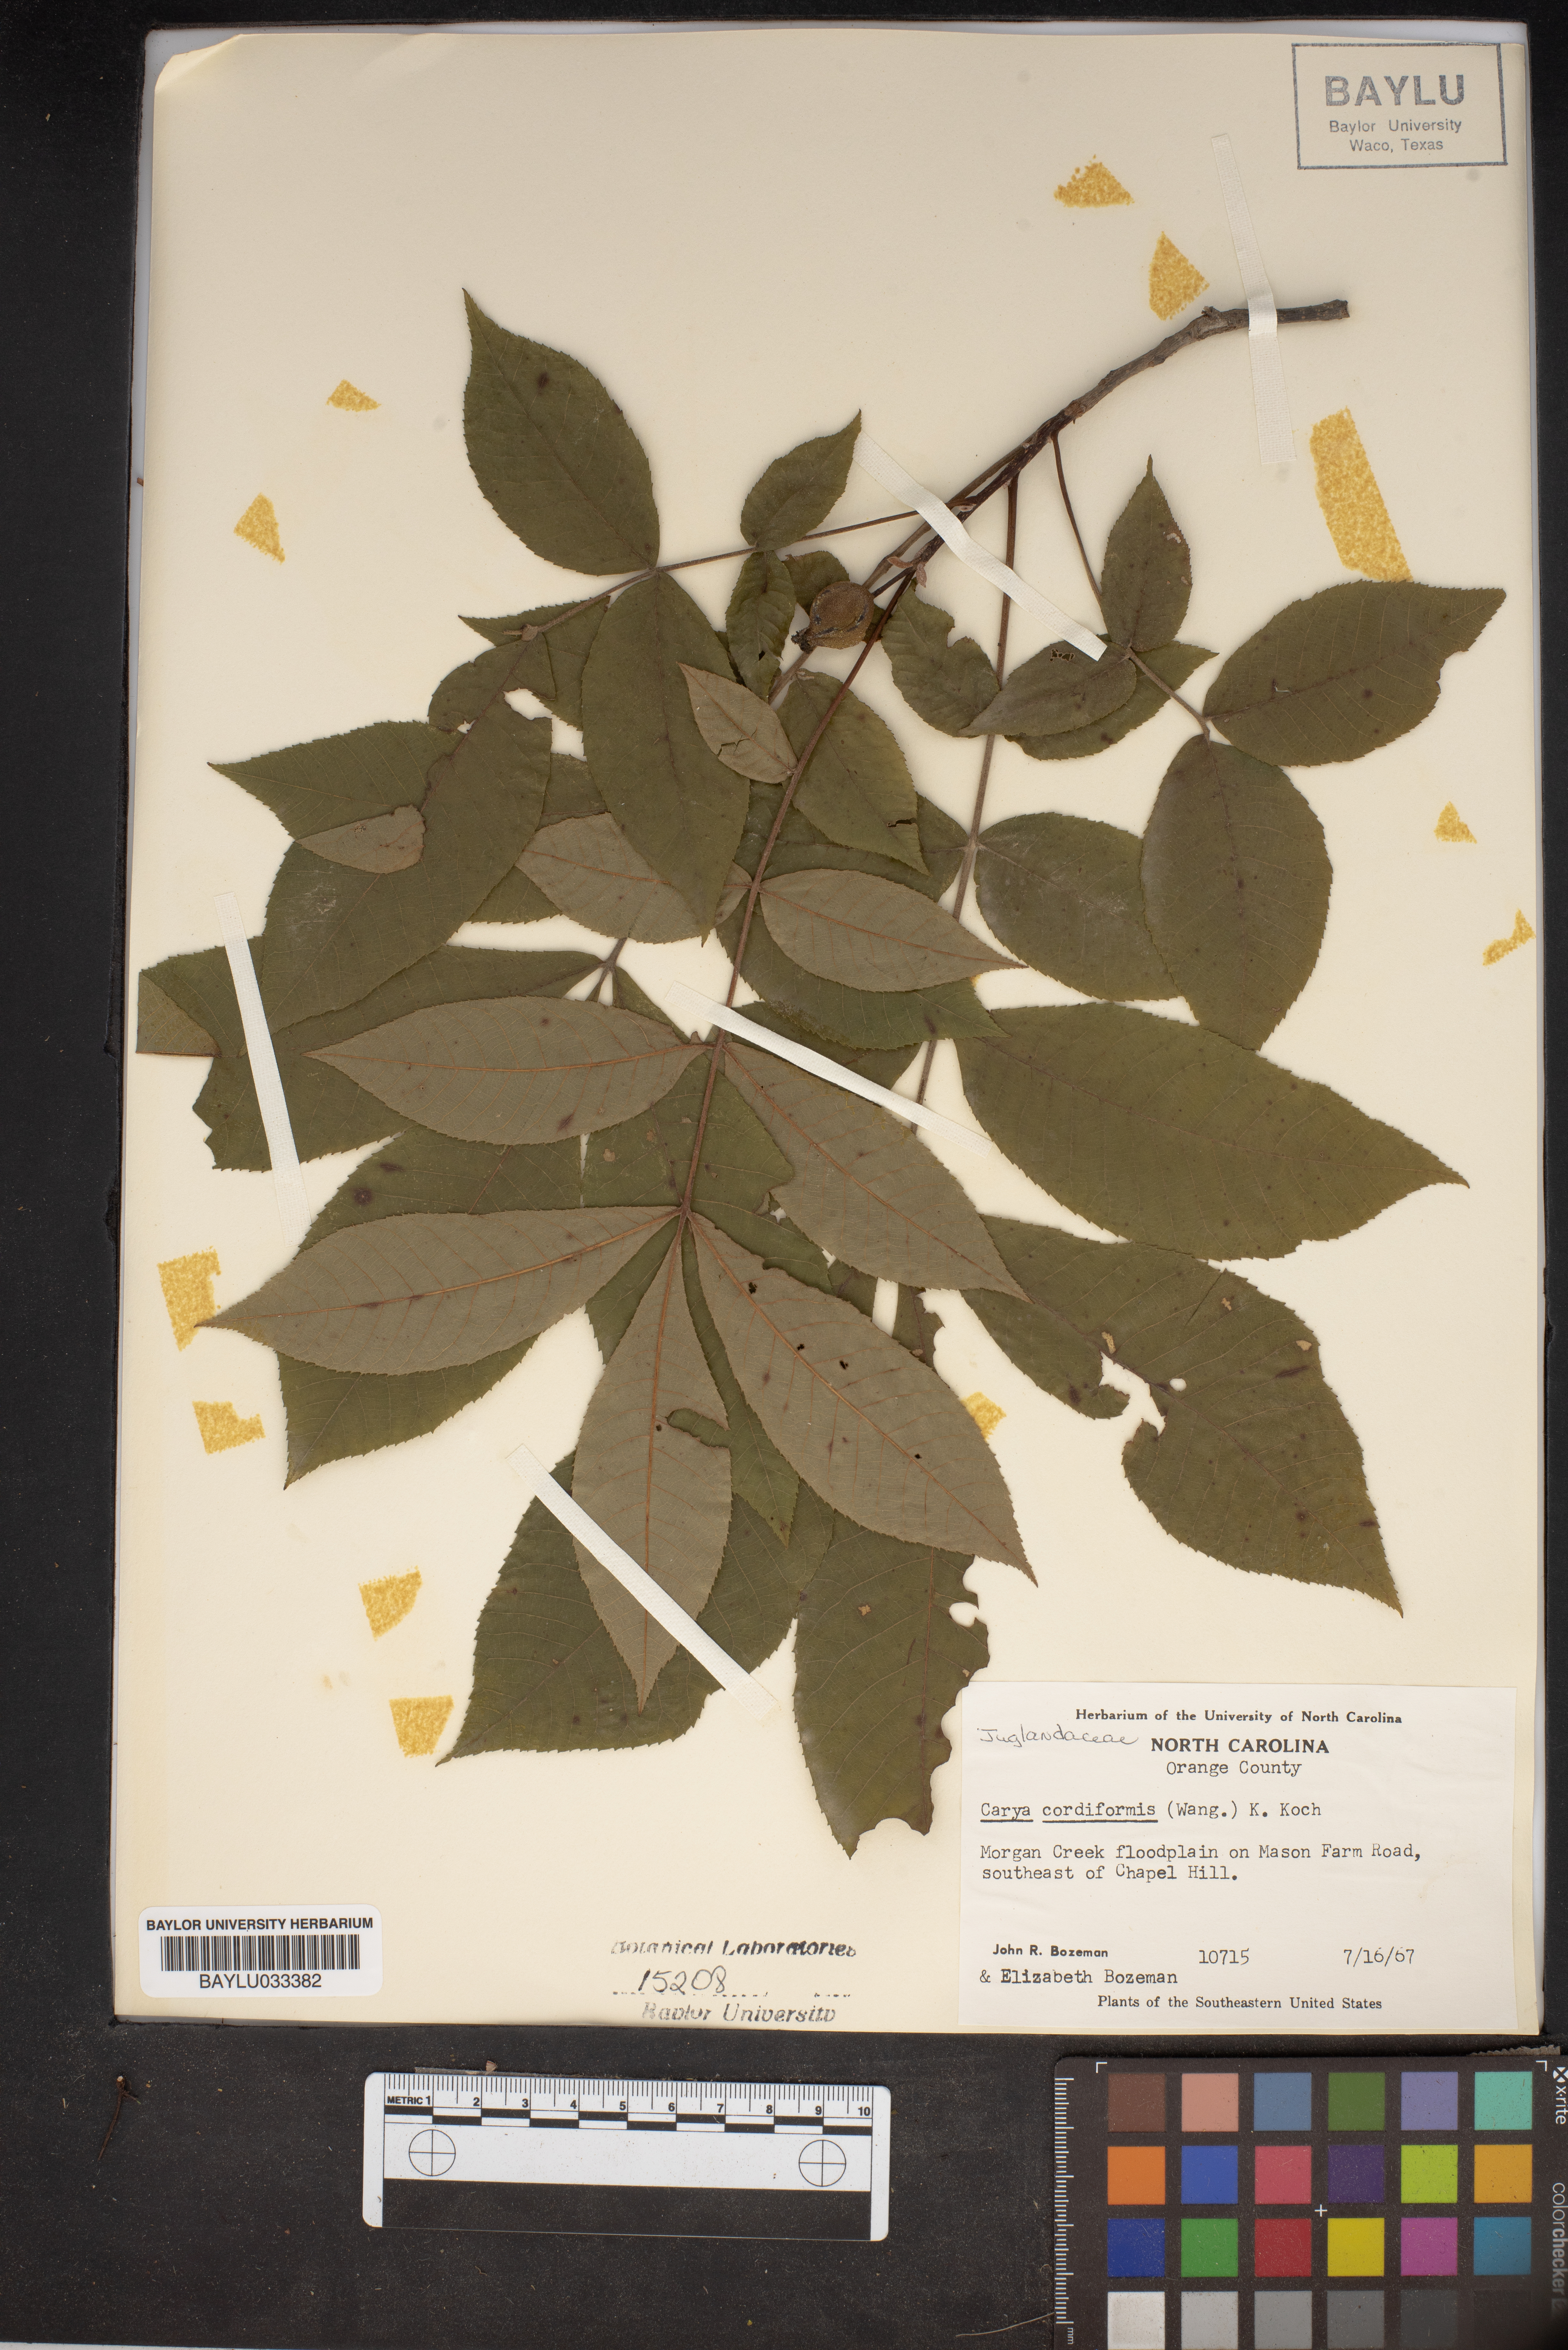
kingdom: Plantae
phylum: Tracheophyta
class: Magnoliopsida
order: Fagales
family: Juglandaceae
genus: Carya
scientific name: Carya cordiformis
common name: Bitternut hickory
